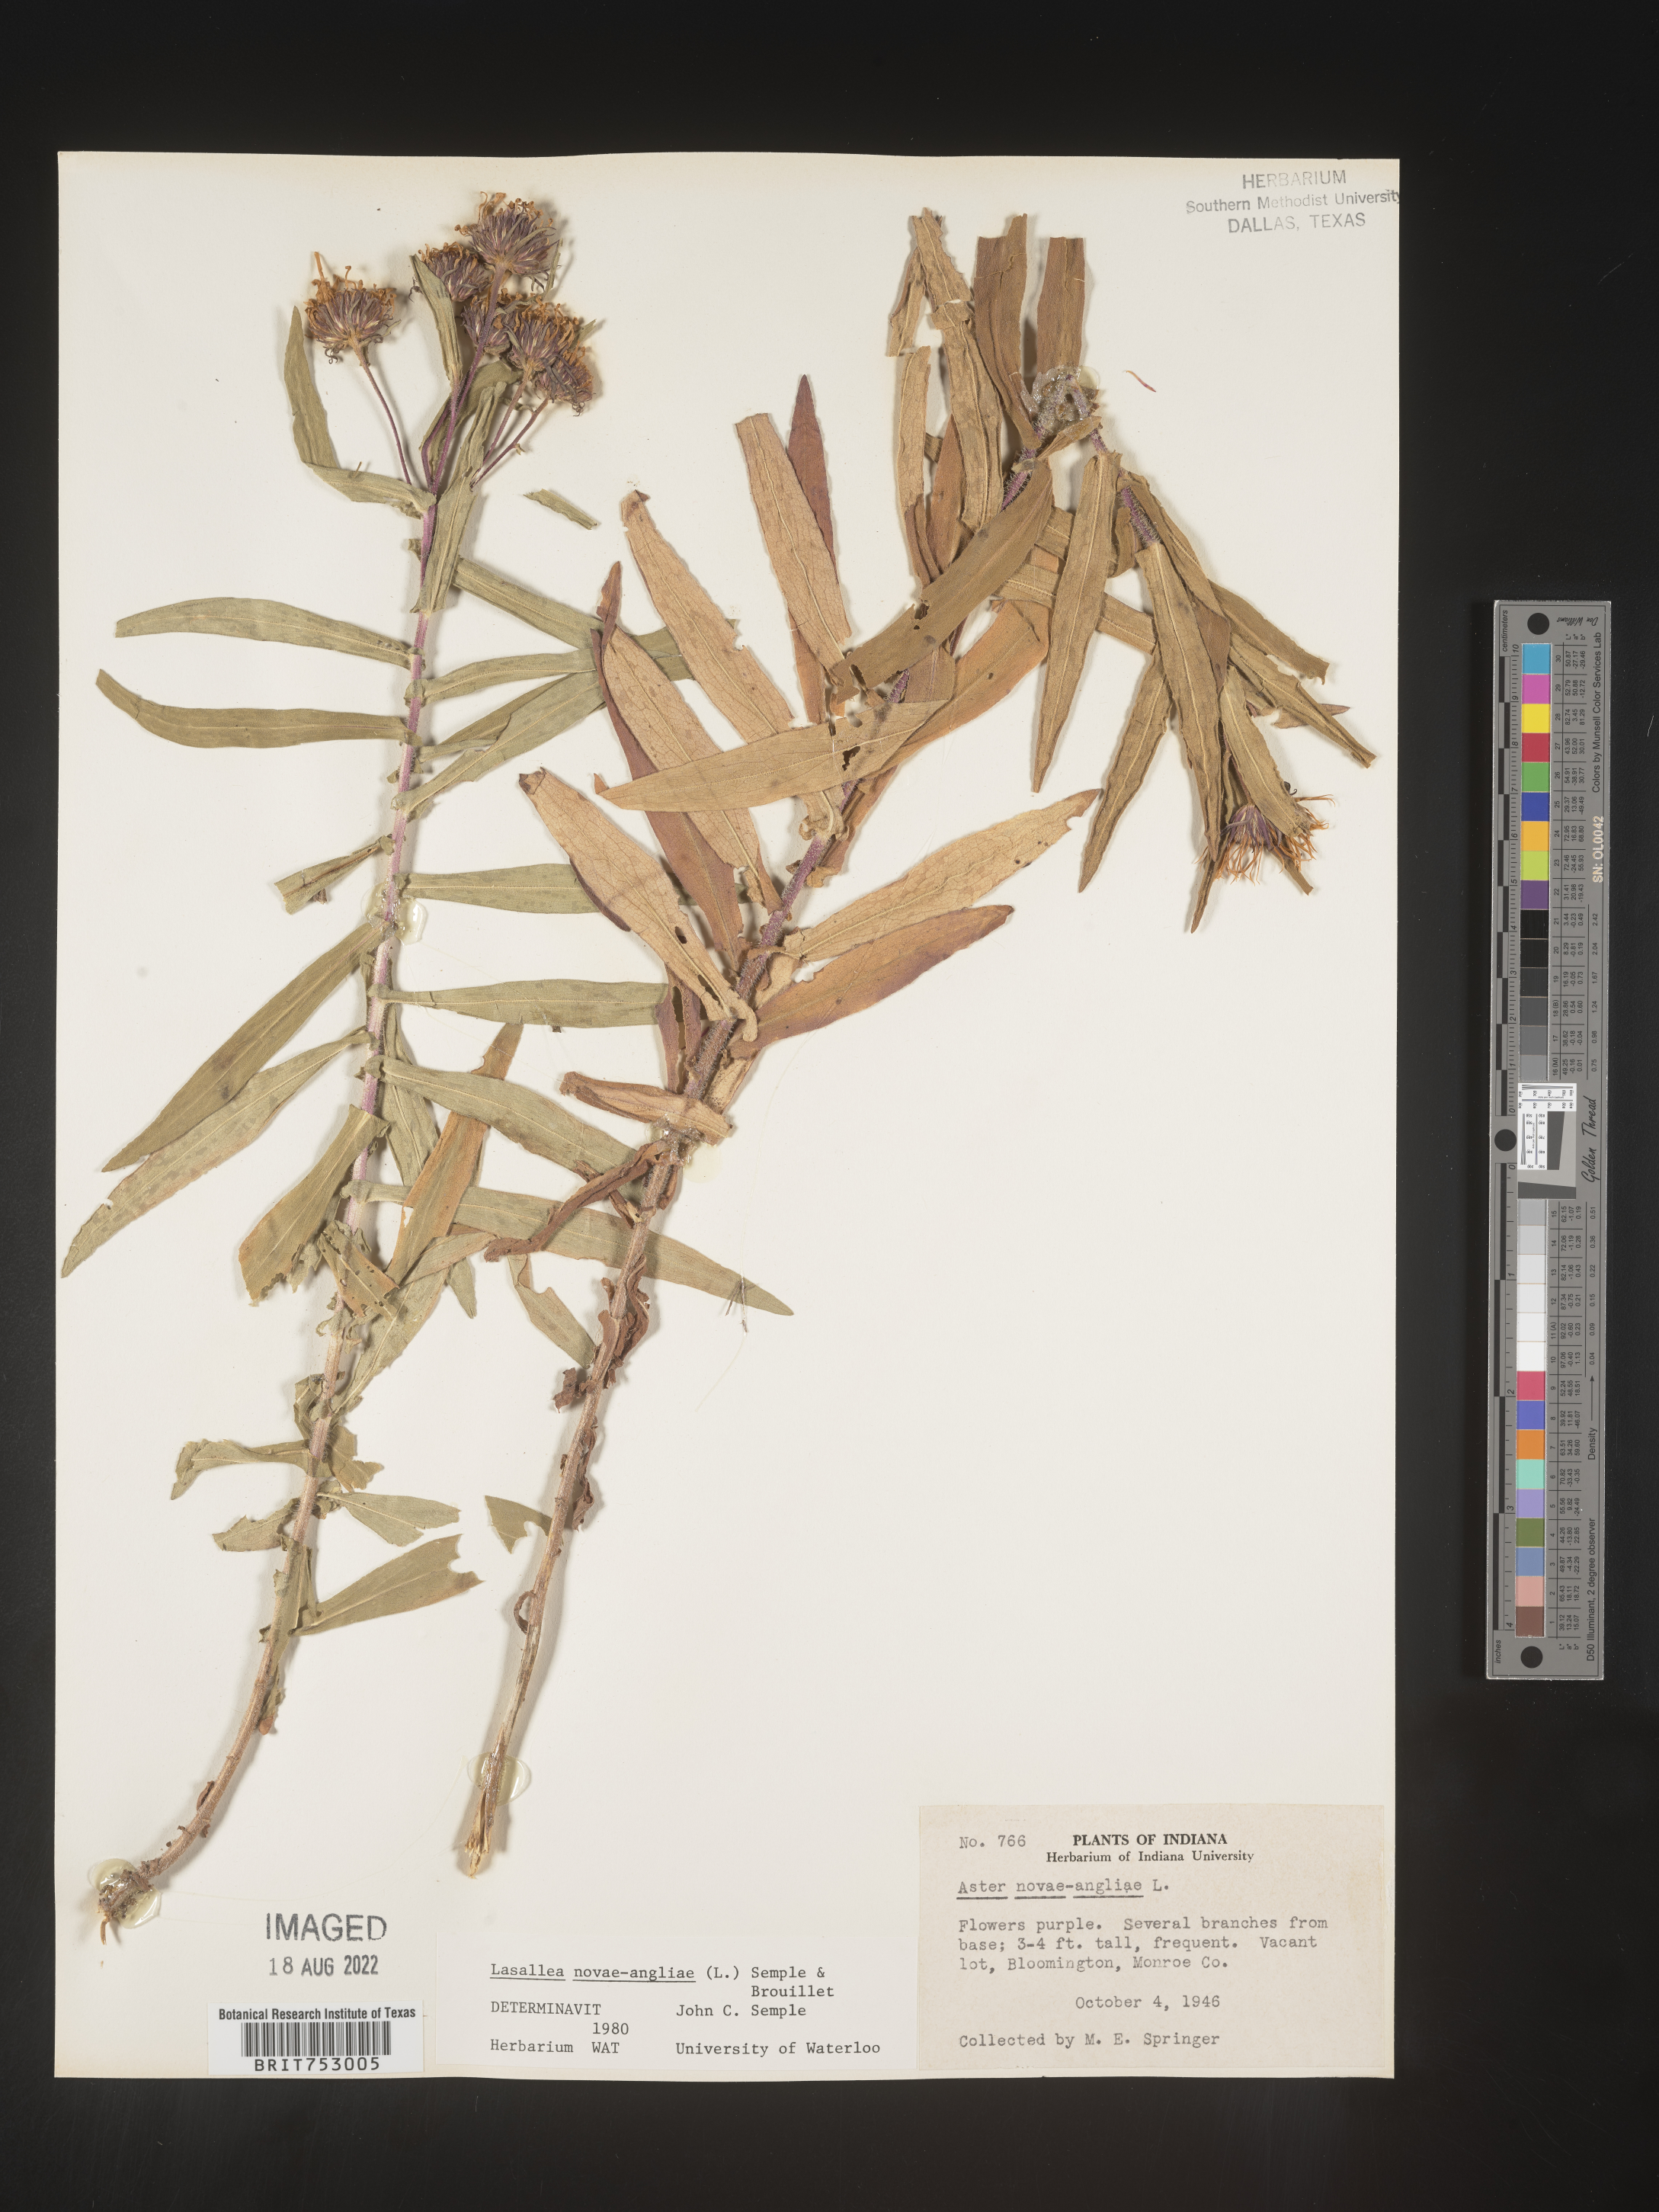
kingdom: Plantae
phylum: Tracheophyta
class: Magnoliopsida
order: Asterales
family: Asteraceae
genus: Symphyotrichum
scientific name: Symphyotrichum novae-angliae
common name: Michaelmas daisy
